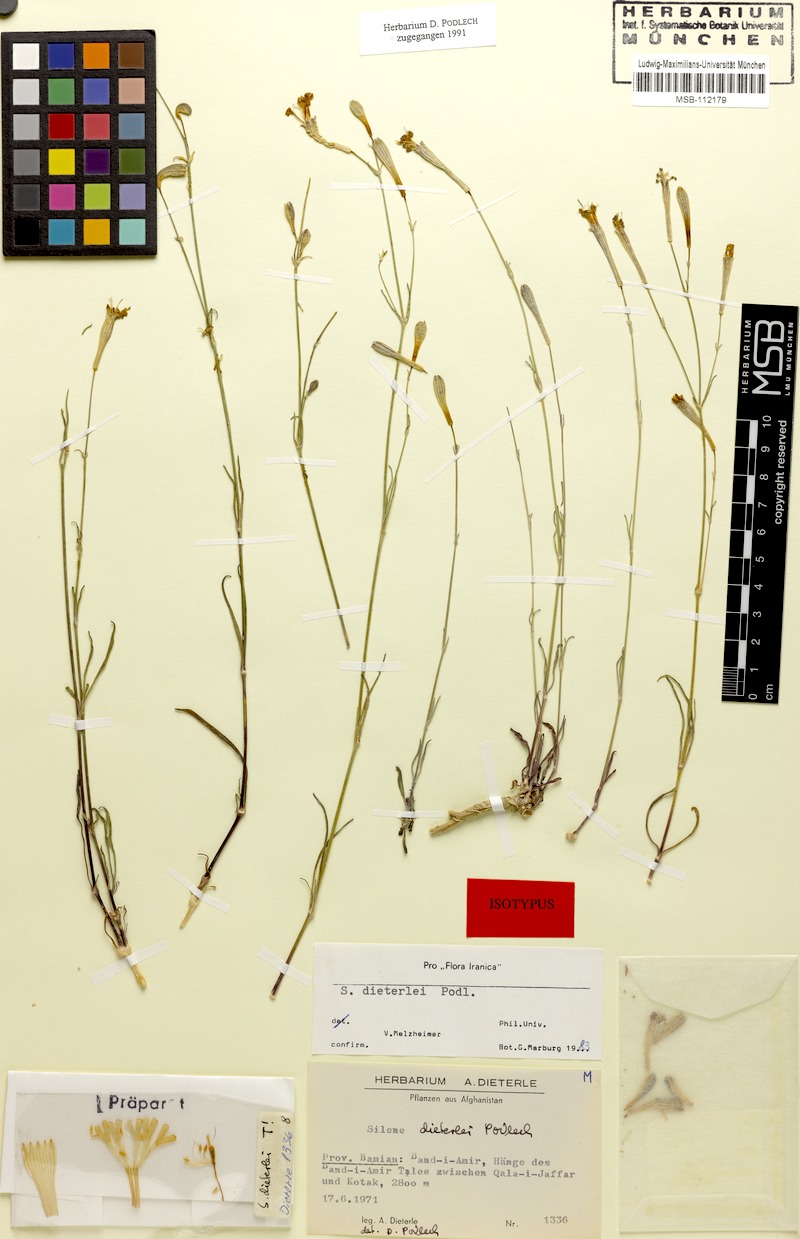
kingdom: Plantae
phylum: Tracheophyta
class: Magnoliopsida
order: Caryophyllales
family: Caryophyllaceae
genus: Silene
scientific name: Silene dieterlei
